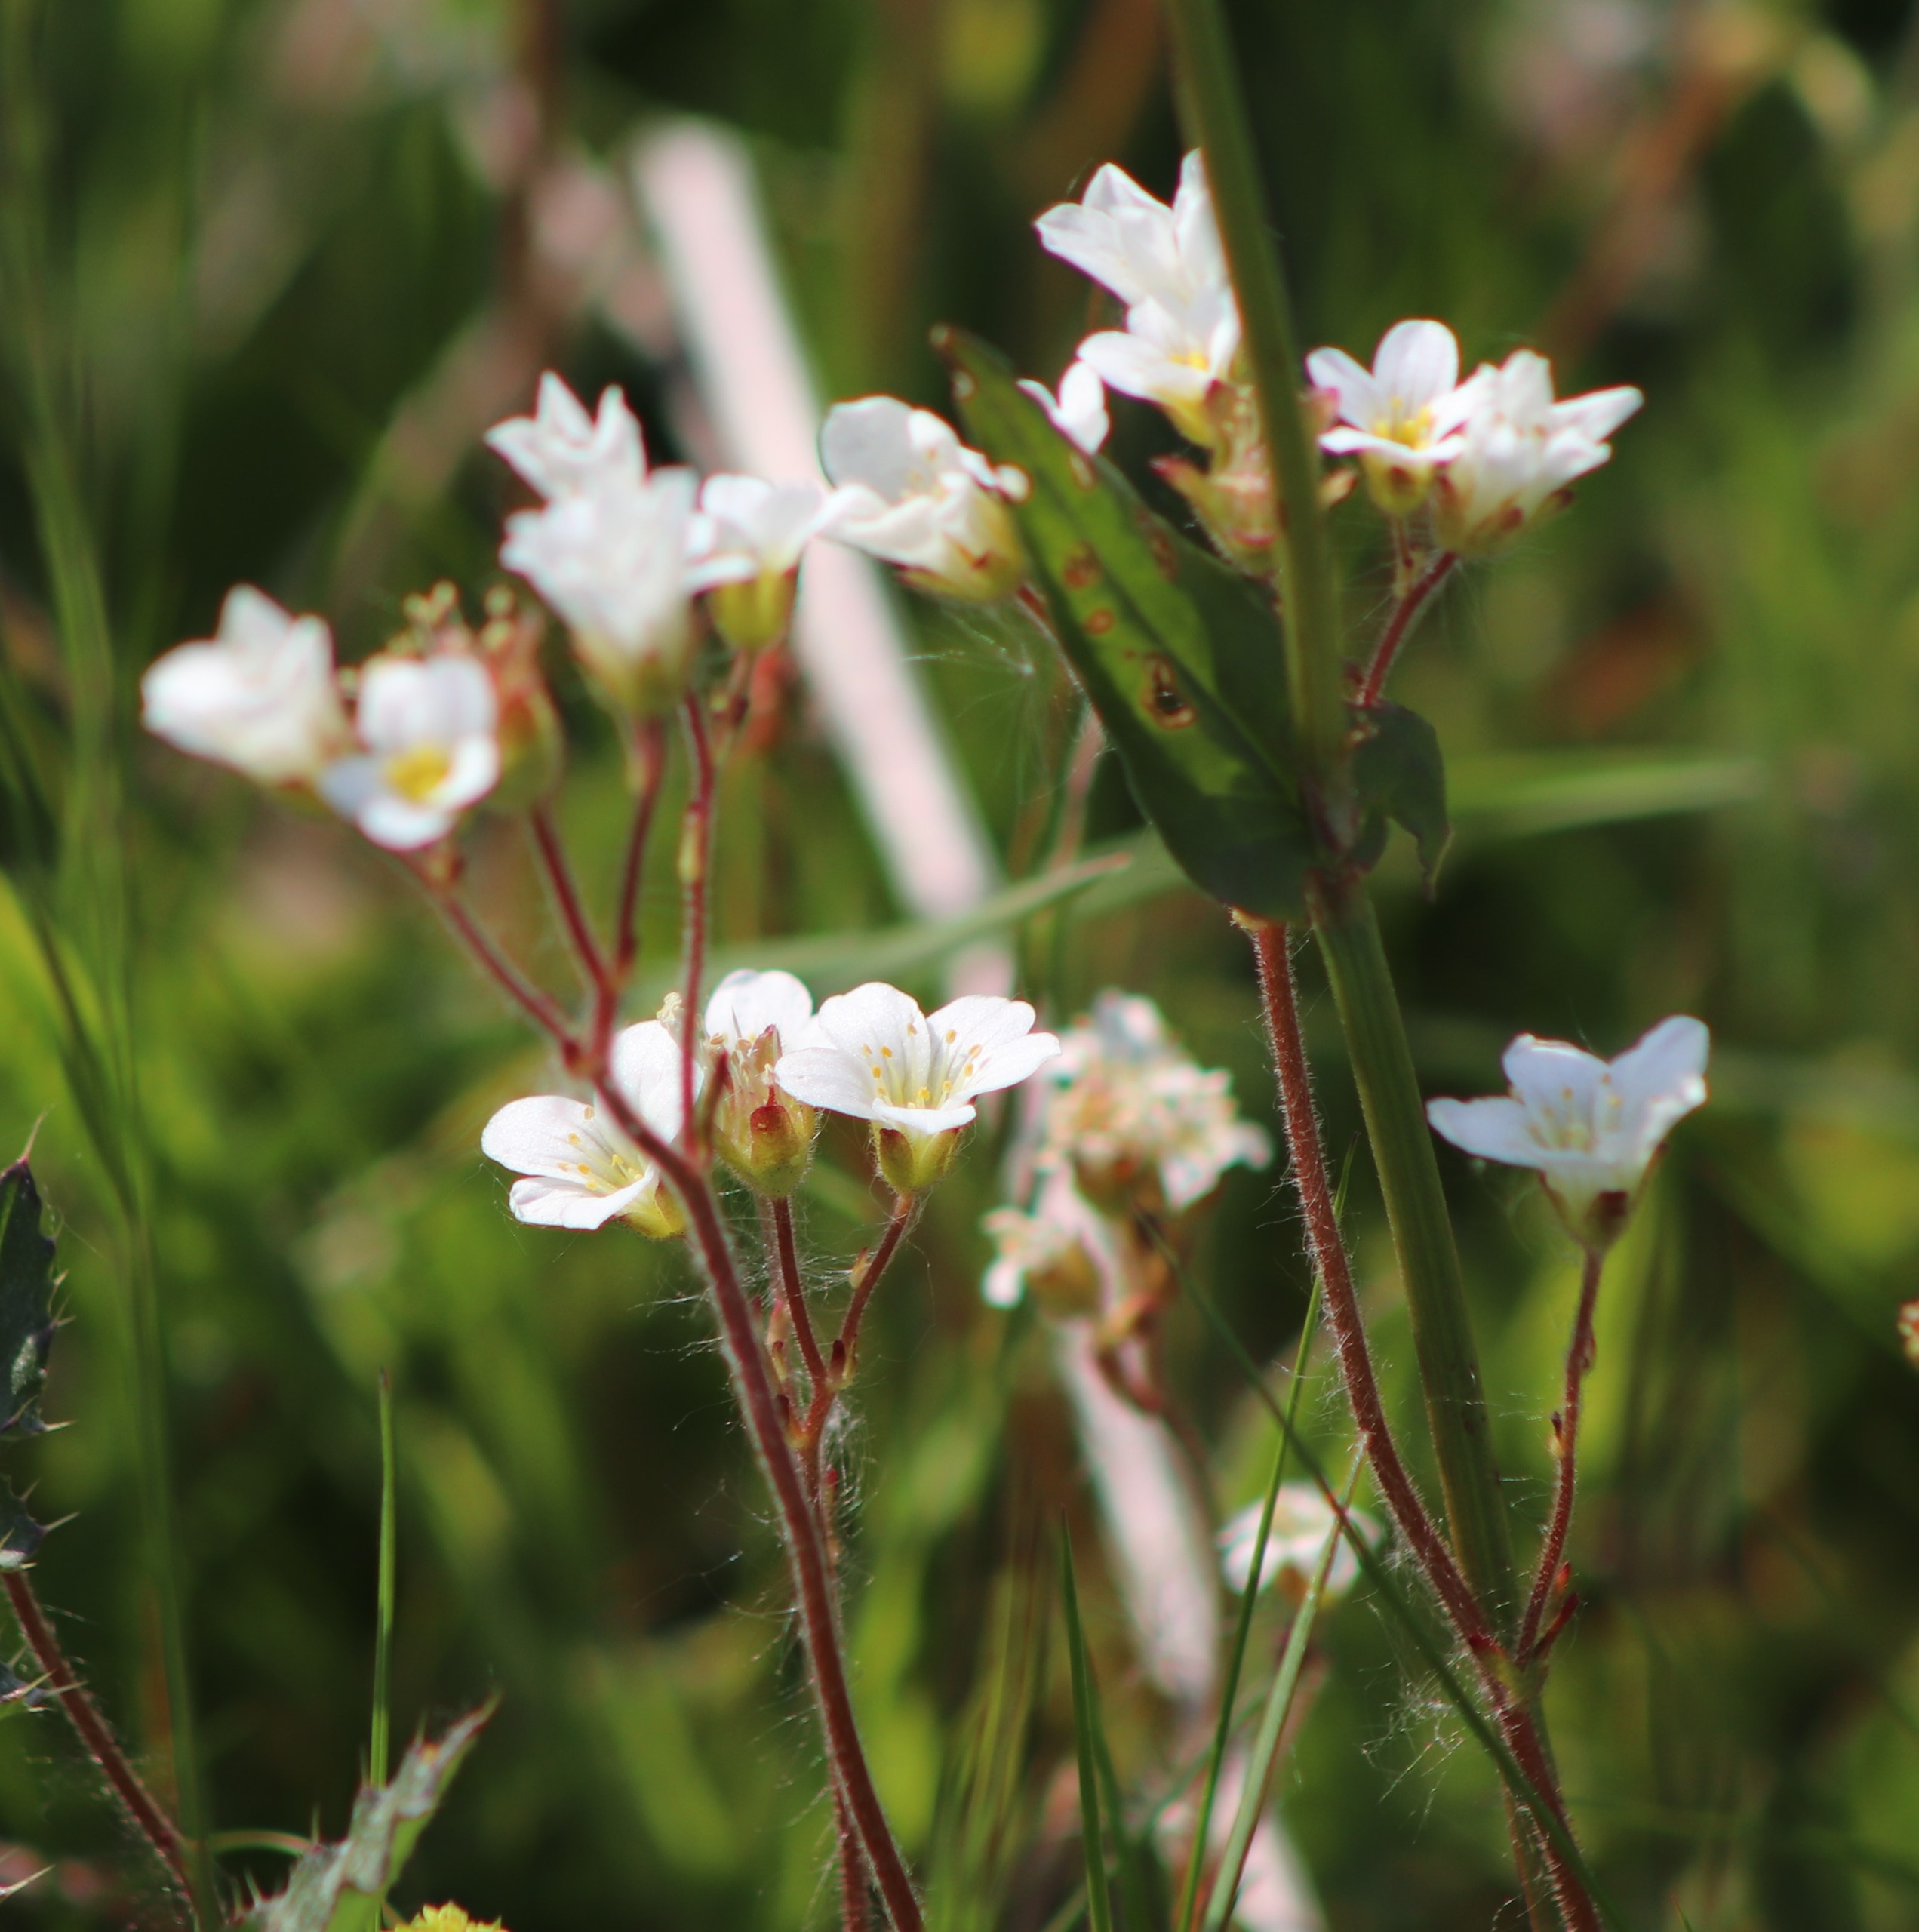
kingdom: Plantae
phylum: Tracheophyta
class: Magnoliopsida
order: Saxifragales
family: Saxifragaceae
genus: Saxifraga
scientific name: Saxifraga granulata
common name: Kornet stenbræk
